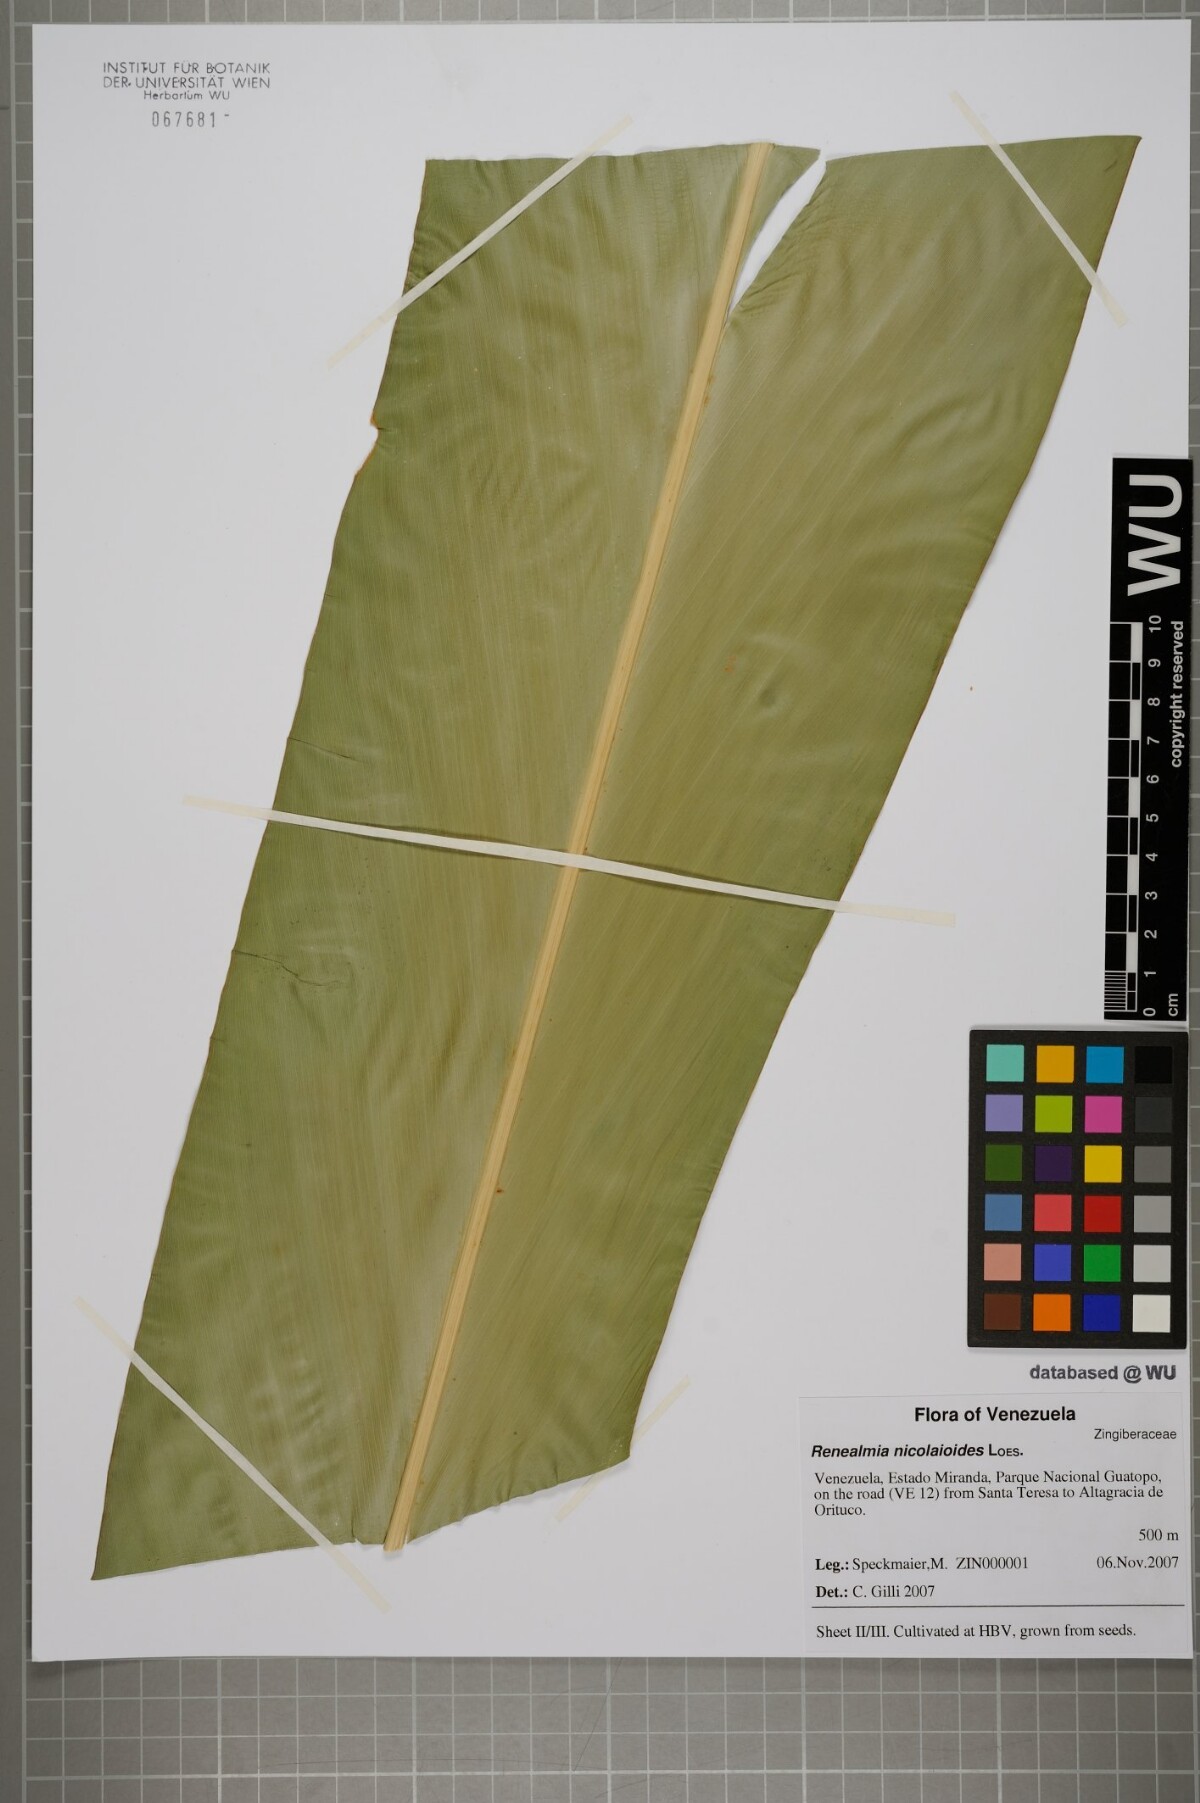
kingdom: Plantae
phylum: Tracheophyta
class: Liliopsida
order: Zingiberales
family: Zingiberaceae
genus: Renealmia
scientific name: Renealmia nicolaioides
